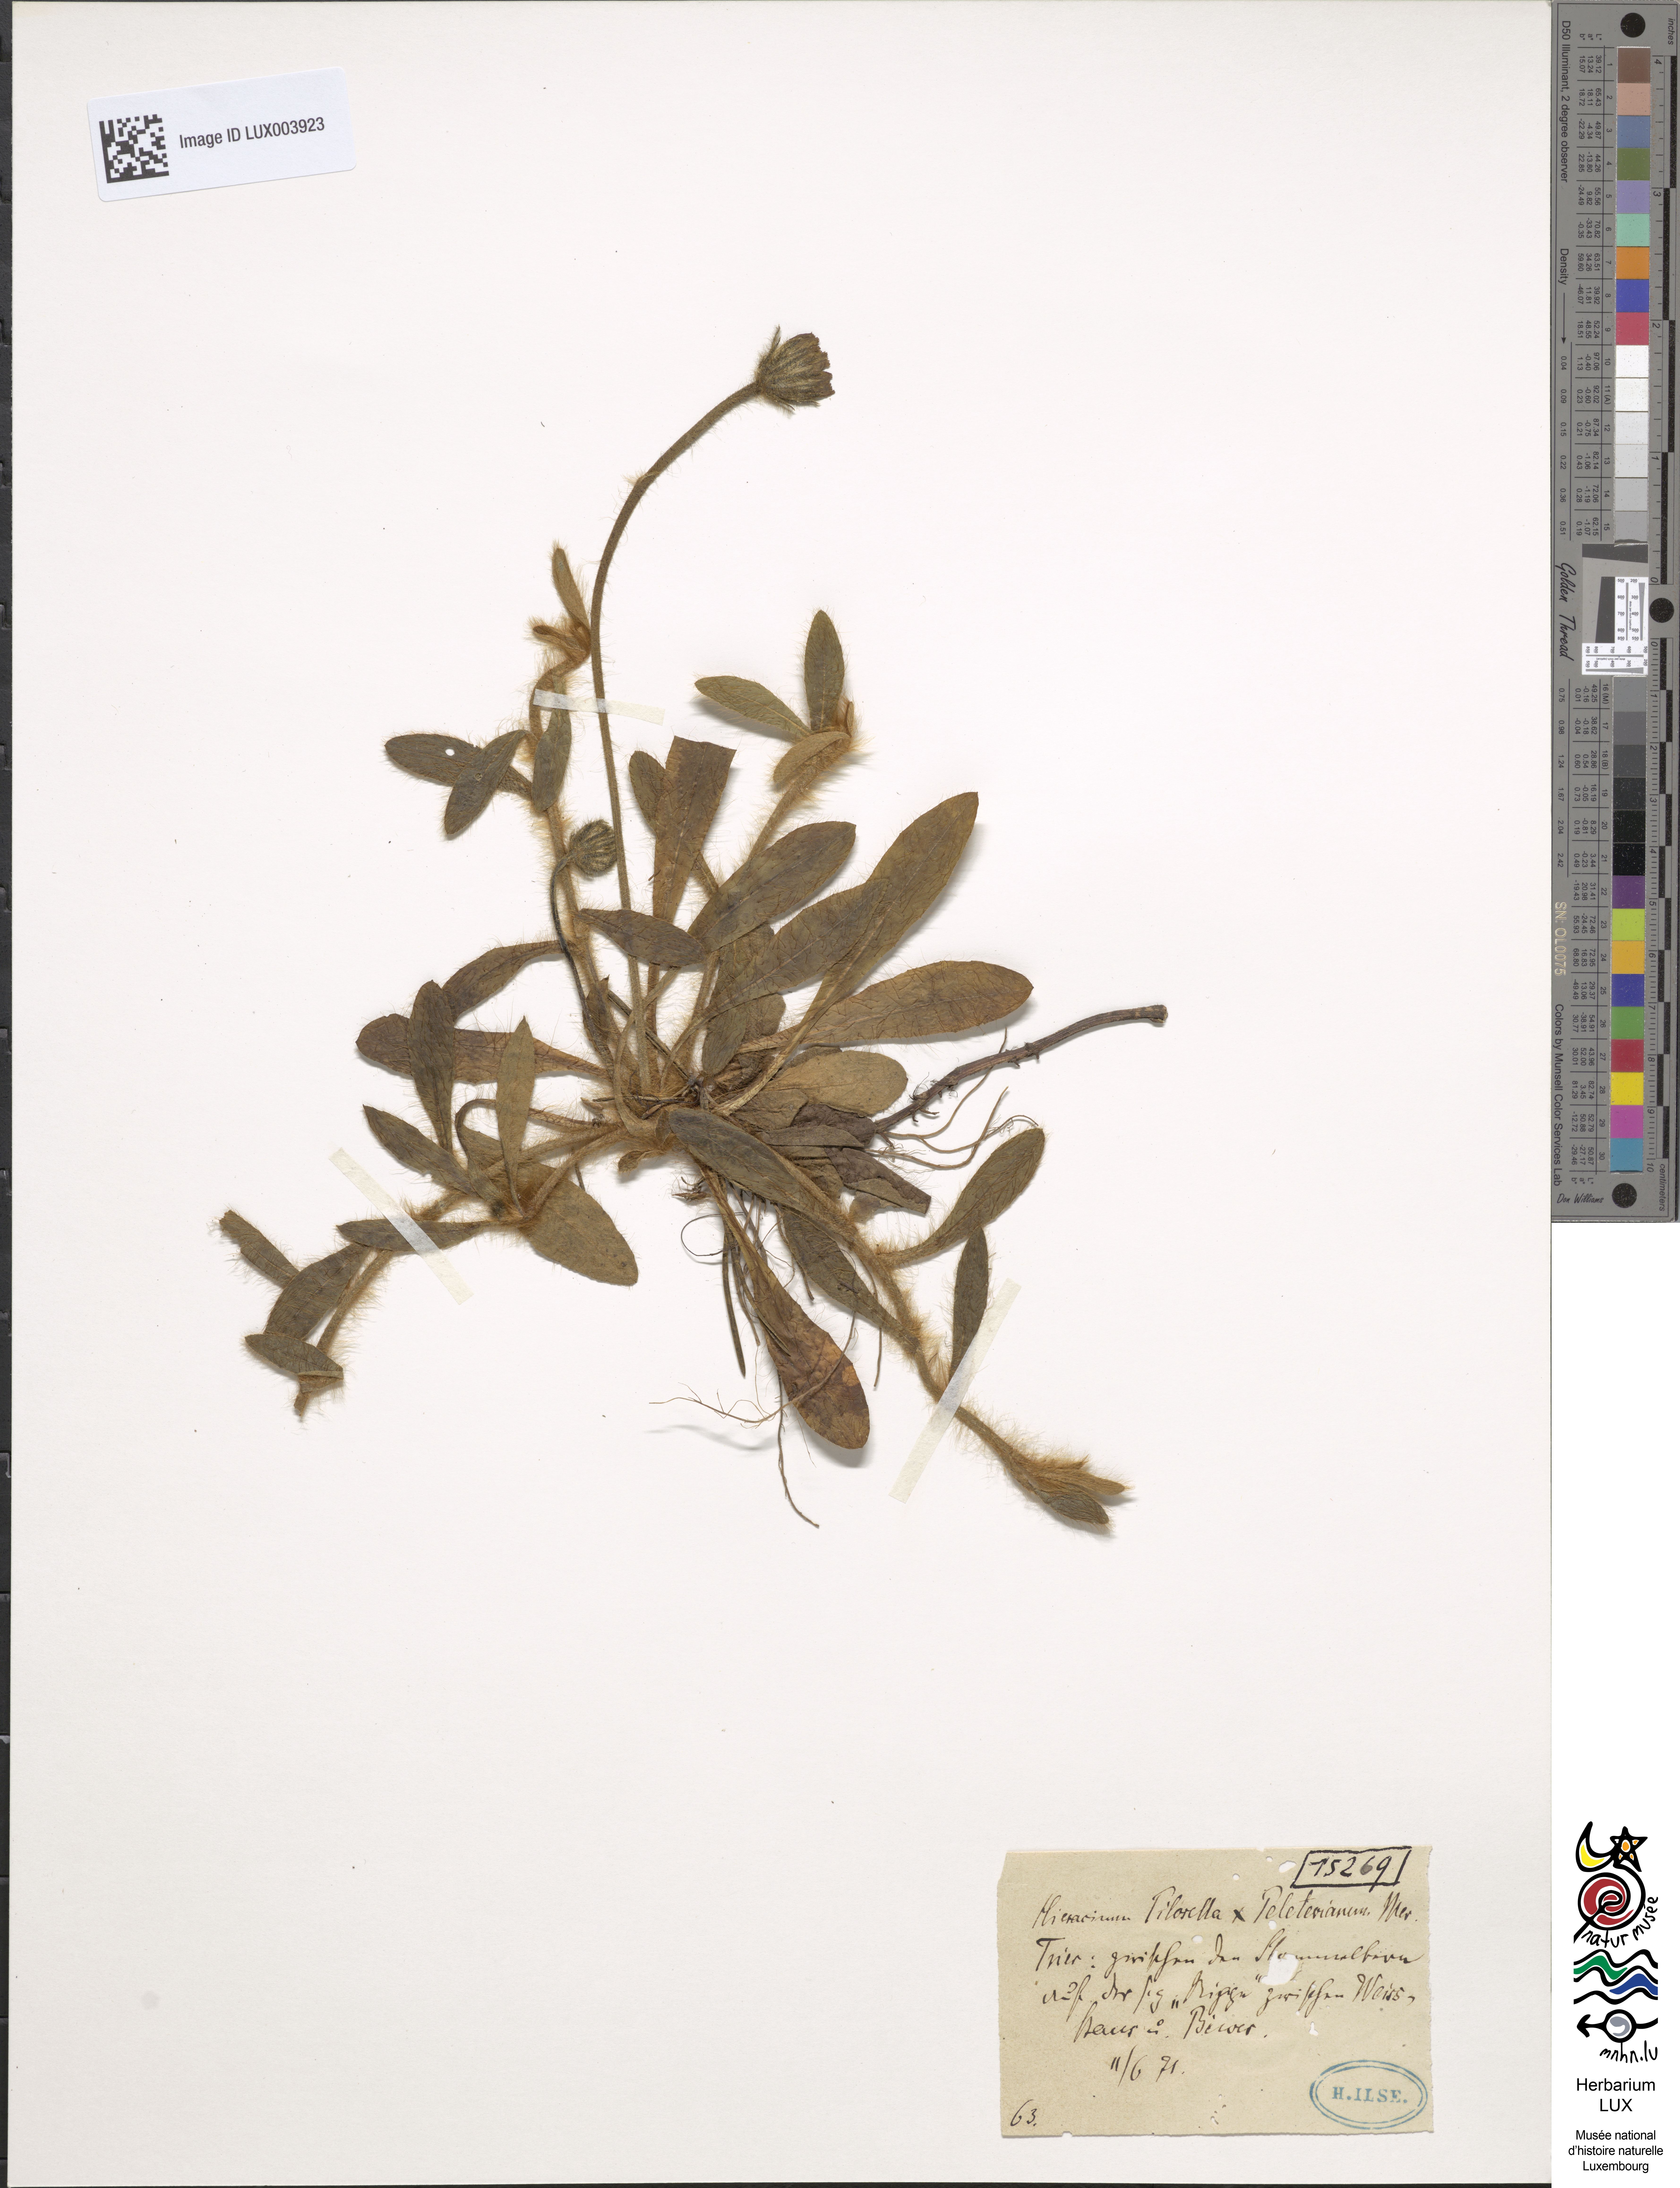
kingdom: Plantae
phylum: Tracheophyta
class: Magnoliopsida
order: Asterales
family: Asteraceae
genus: Pilosella
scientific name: Pilosella longisquama
